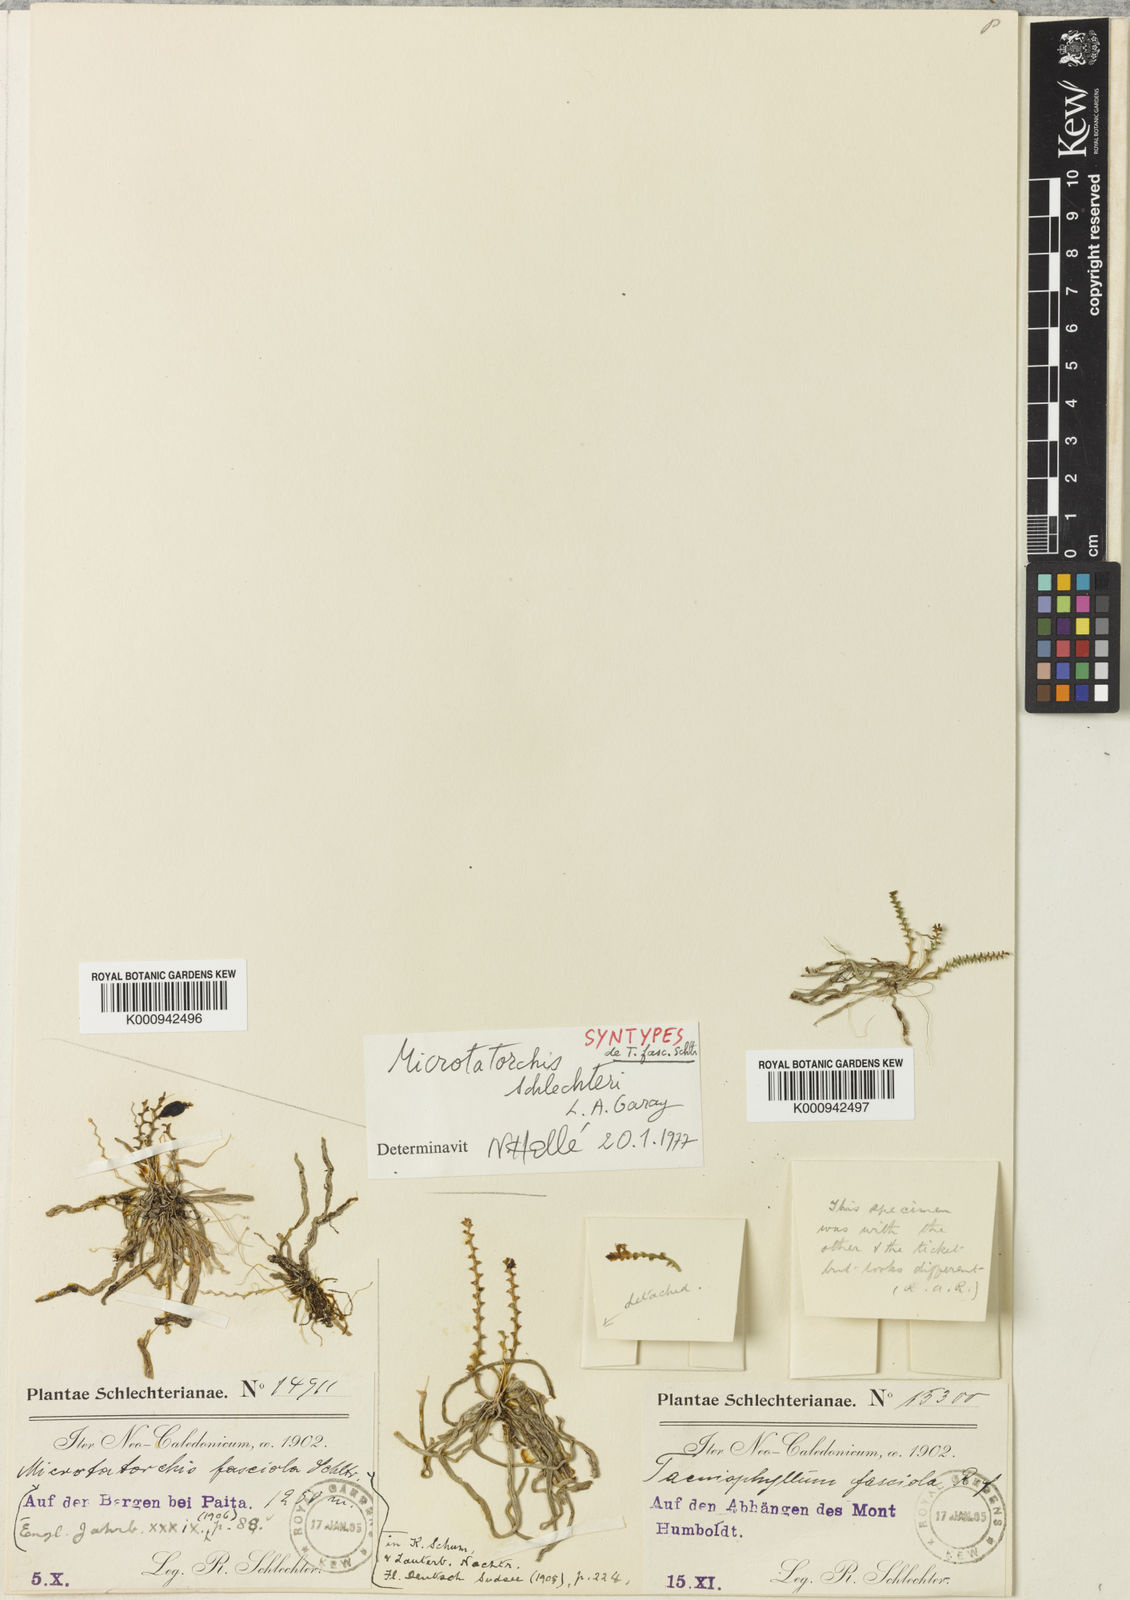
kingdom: Plantae
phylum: Tracheophyta
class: Liliopsida
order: Asparagales
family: Orchidaceae
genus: Taeniophyllum
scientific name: Taeniophyllum rudolfii
